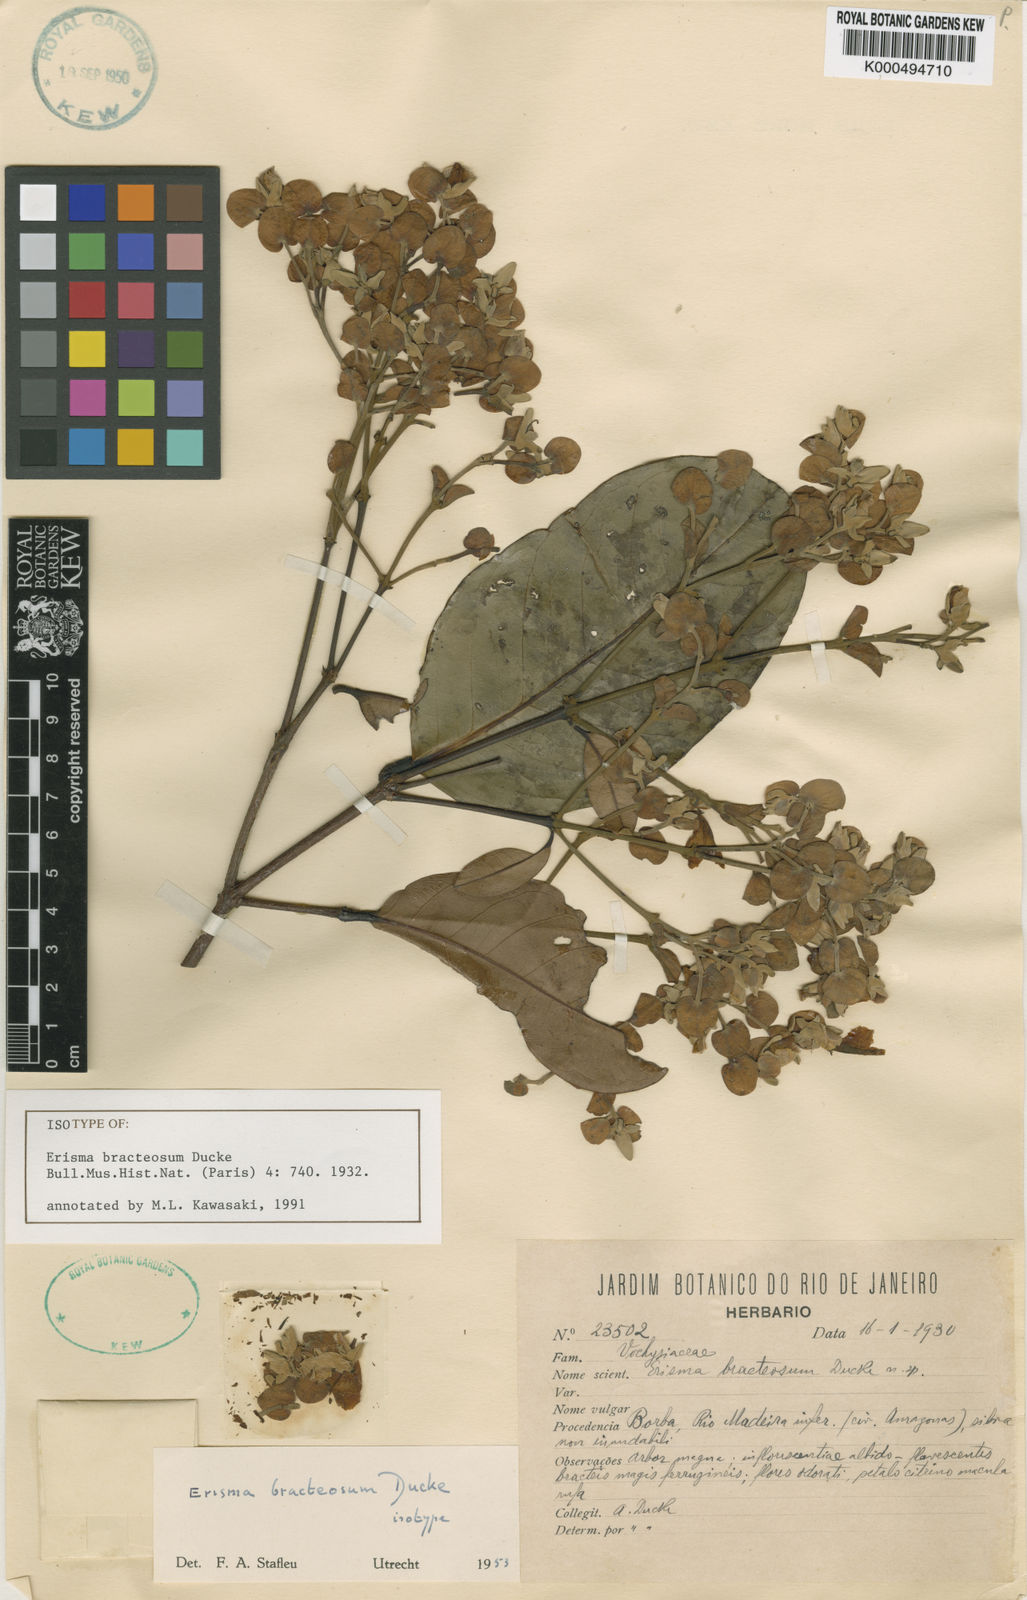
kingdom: Plantae
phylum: Tracheophyta
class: Magnoliopsida
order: Myrtales
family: Vochysiaceae
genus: Erisma
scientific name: Erisma bracteosum
